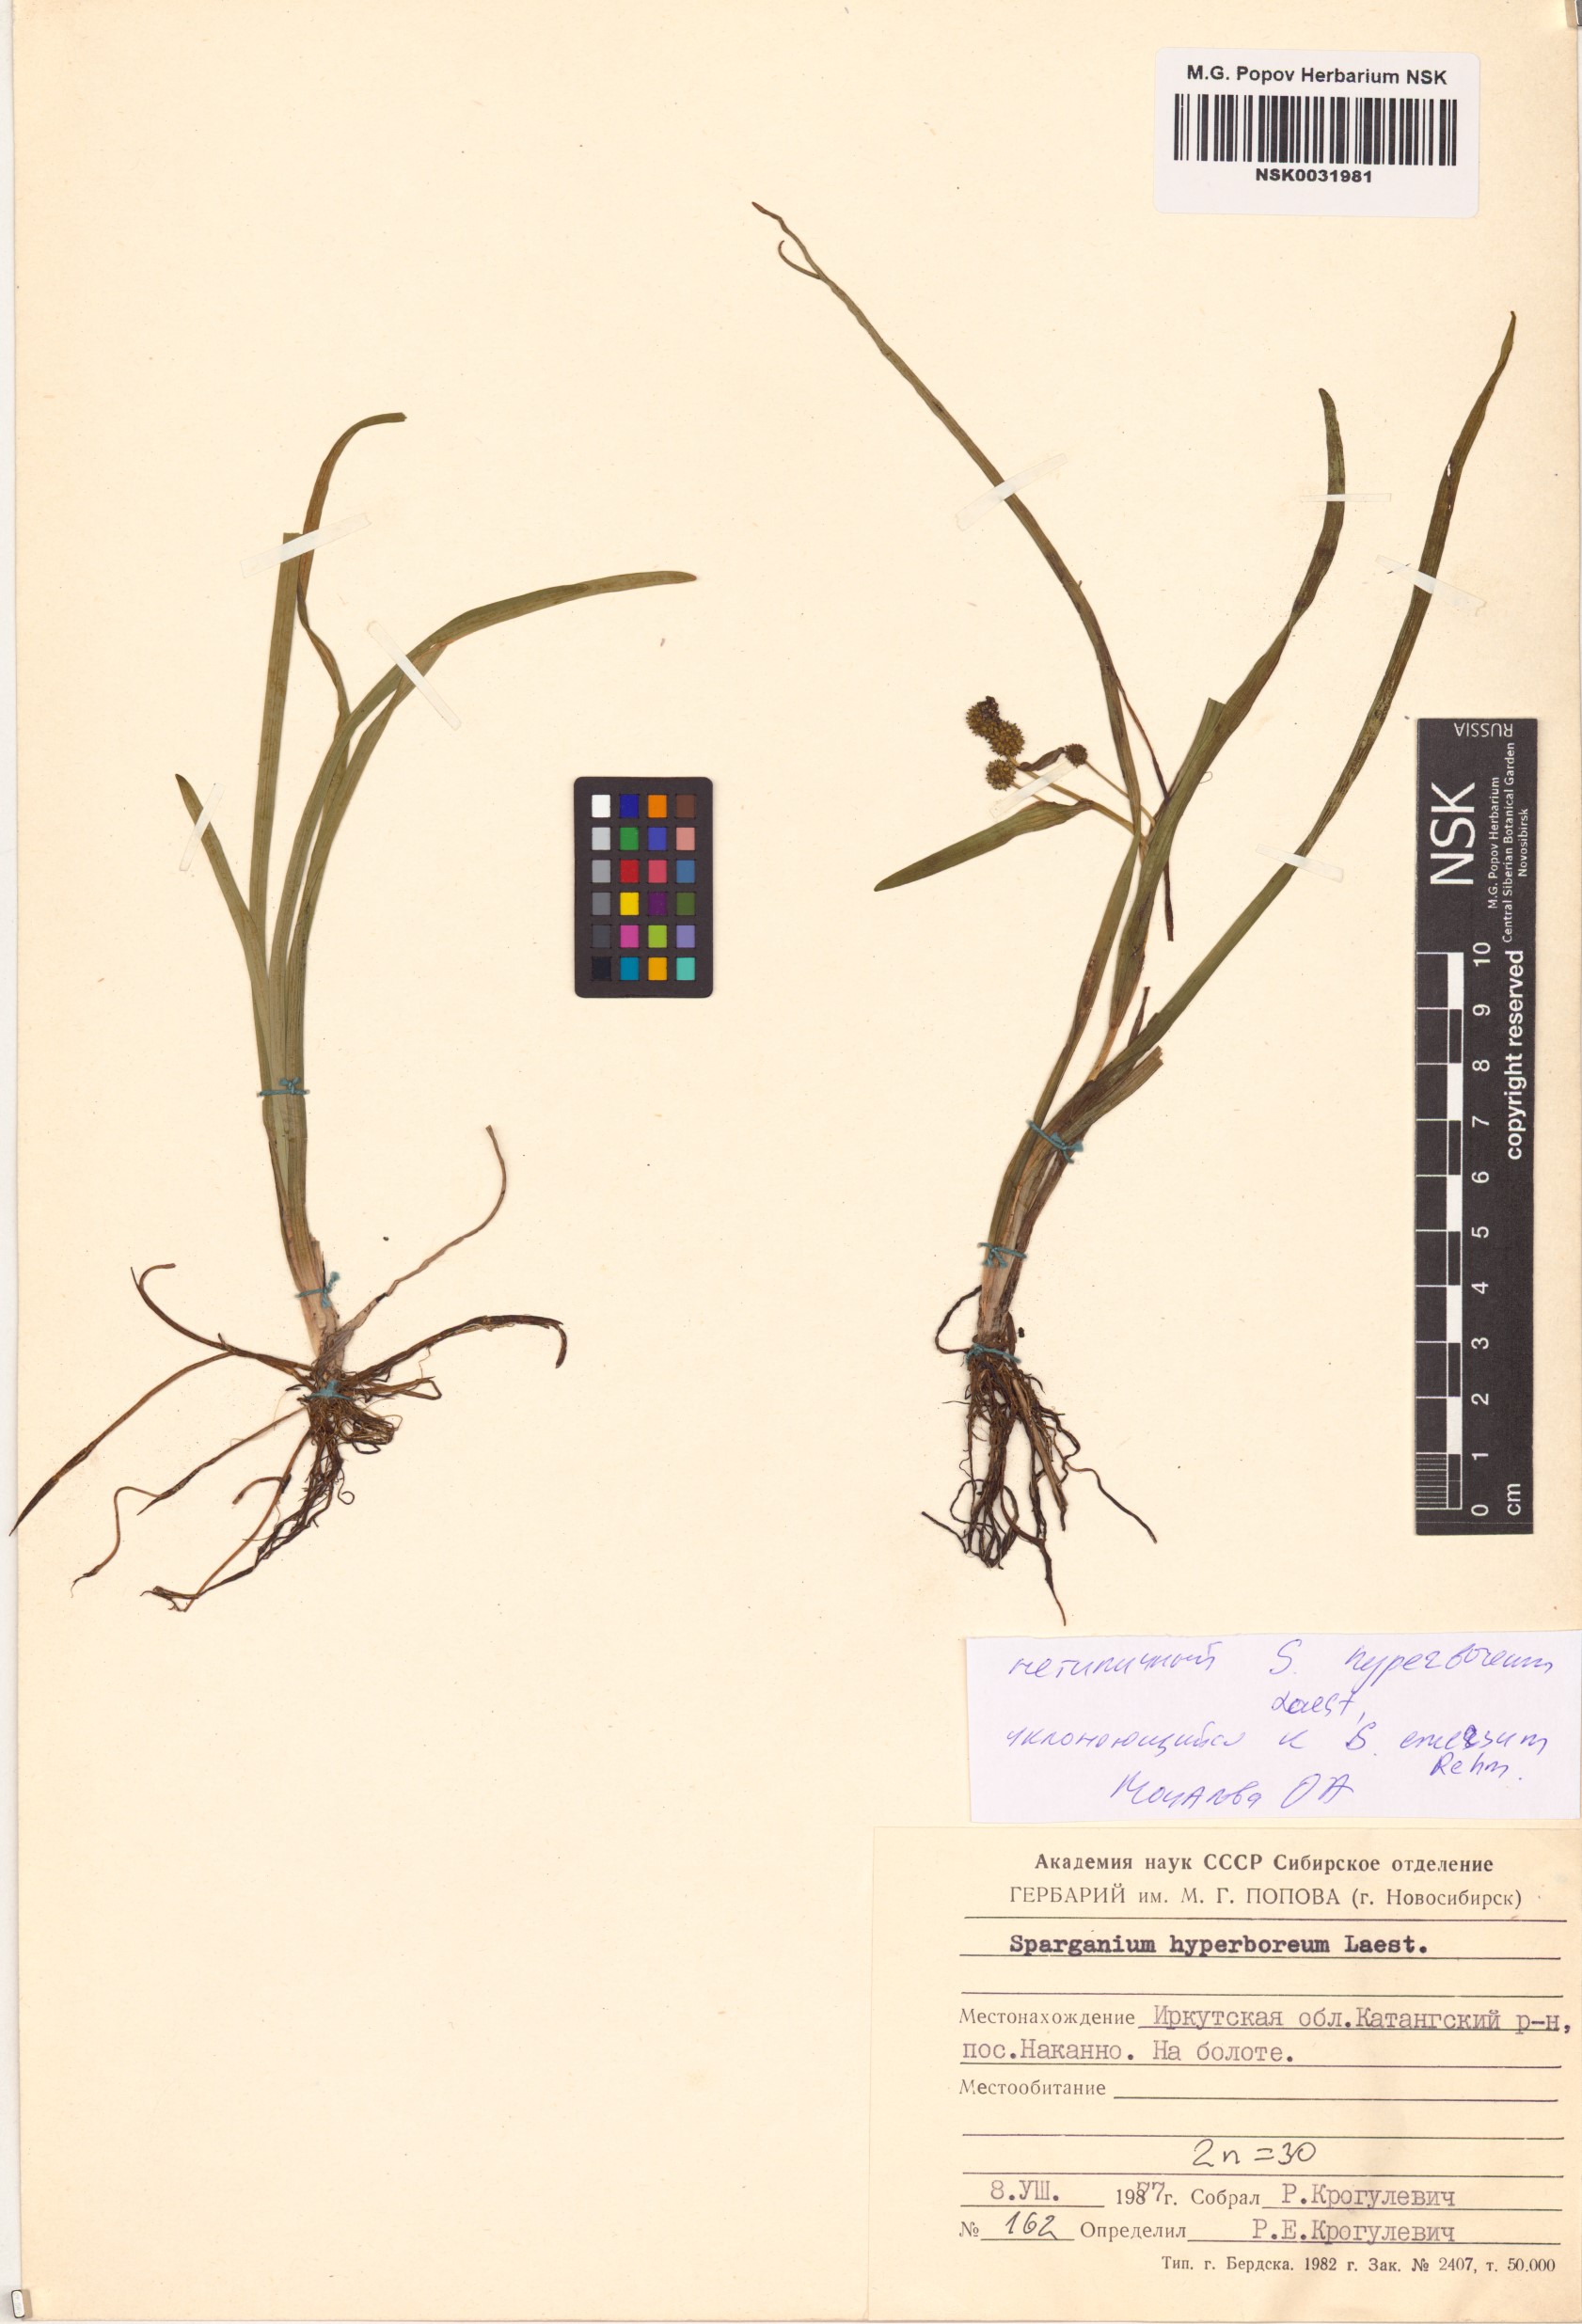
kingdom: Plantae
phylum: Tracheophyta
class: Liliopsida
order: Poales
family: Typhaceae
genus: Sparganium
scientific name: Sparganium hyperboreum
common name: Arctic burreed
